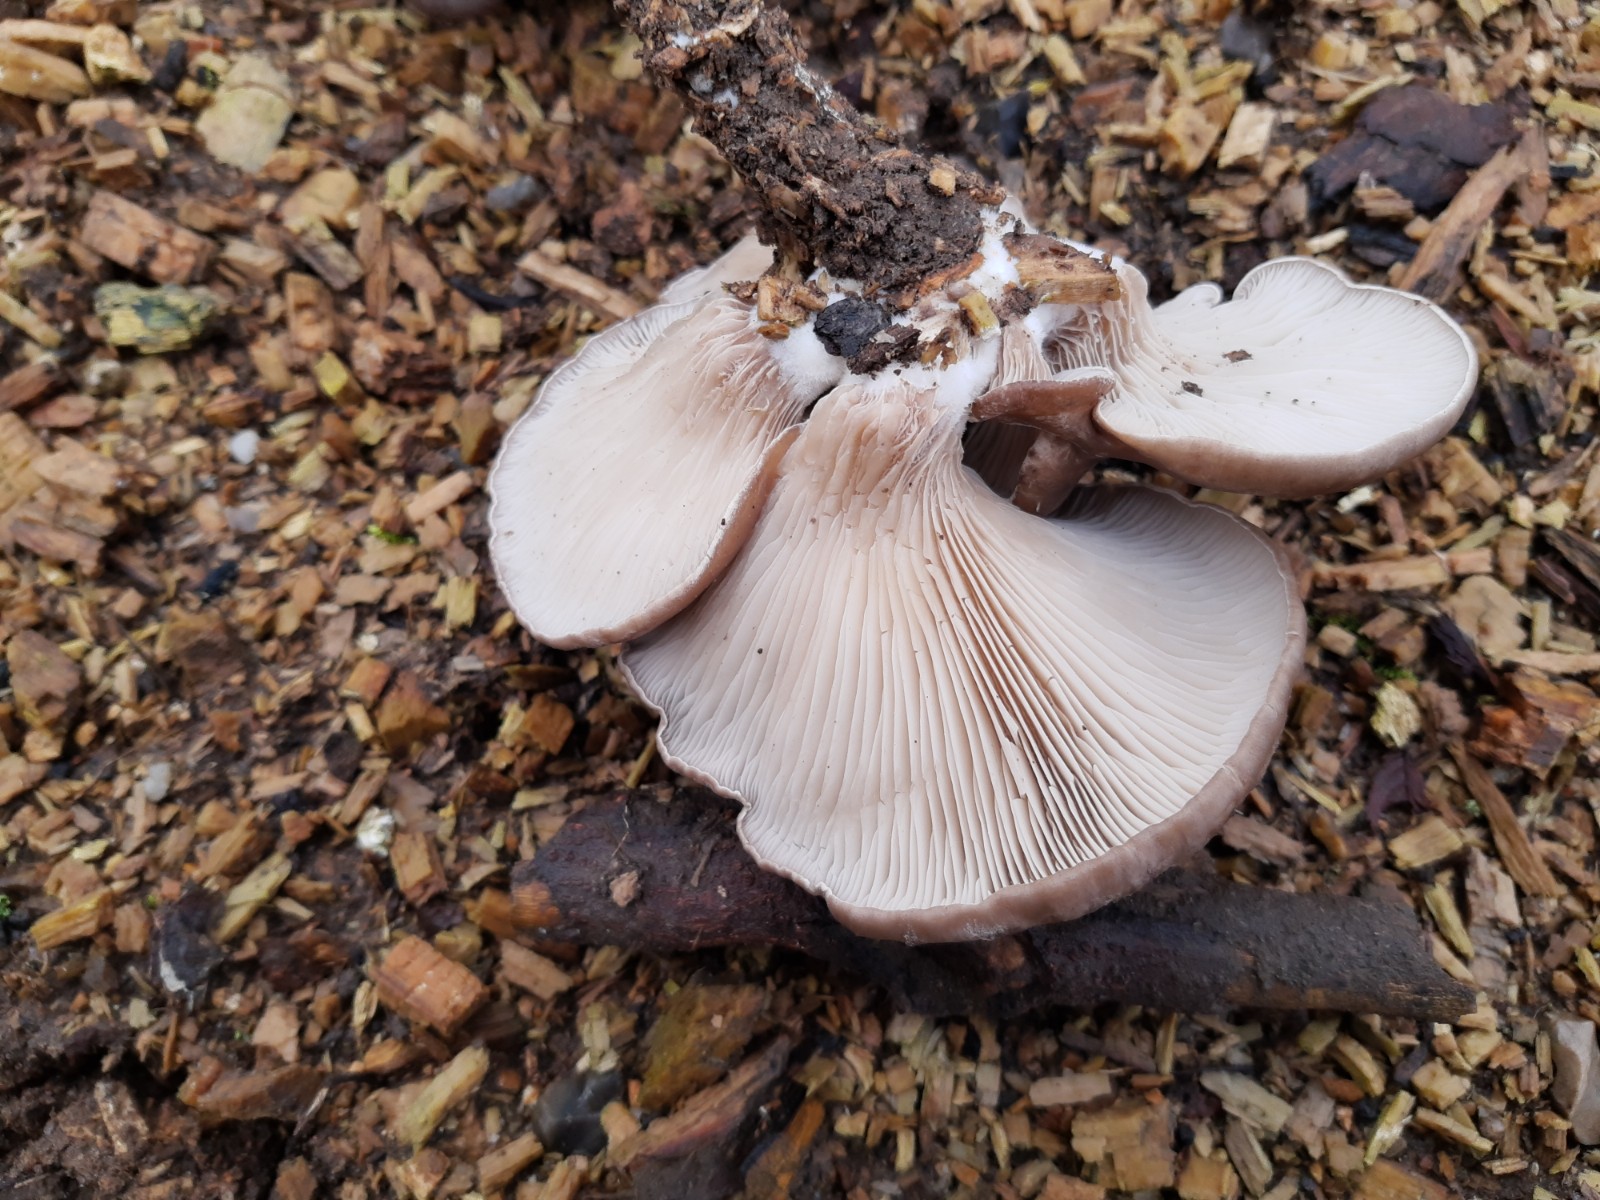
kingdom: Fungi
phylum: Basidiomycota
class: Agaricomycetes
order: Agaricales
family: Pleurotaceae
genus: Pleurotus
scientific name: Pleurotus ostreatus
